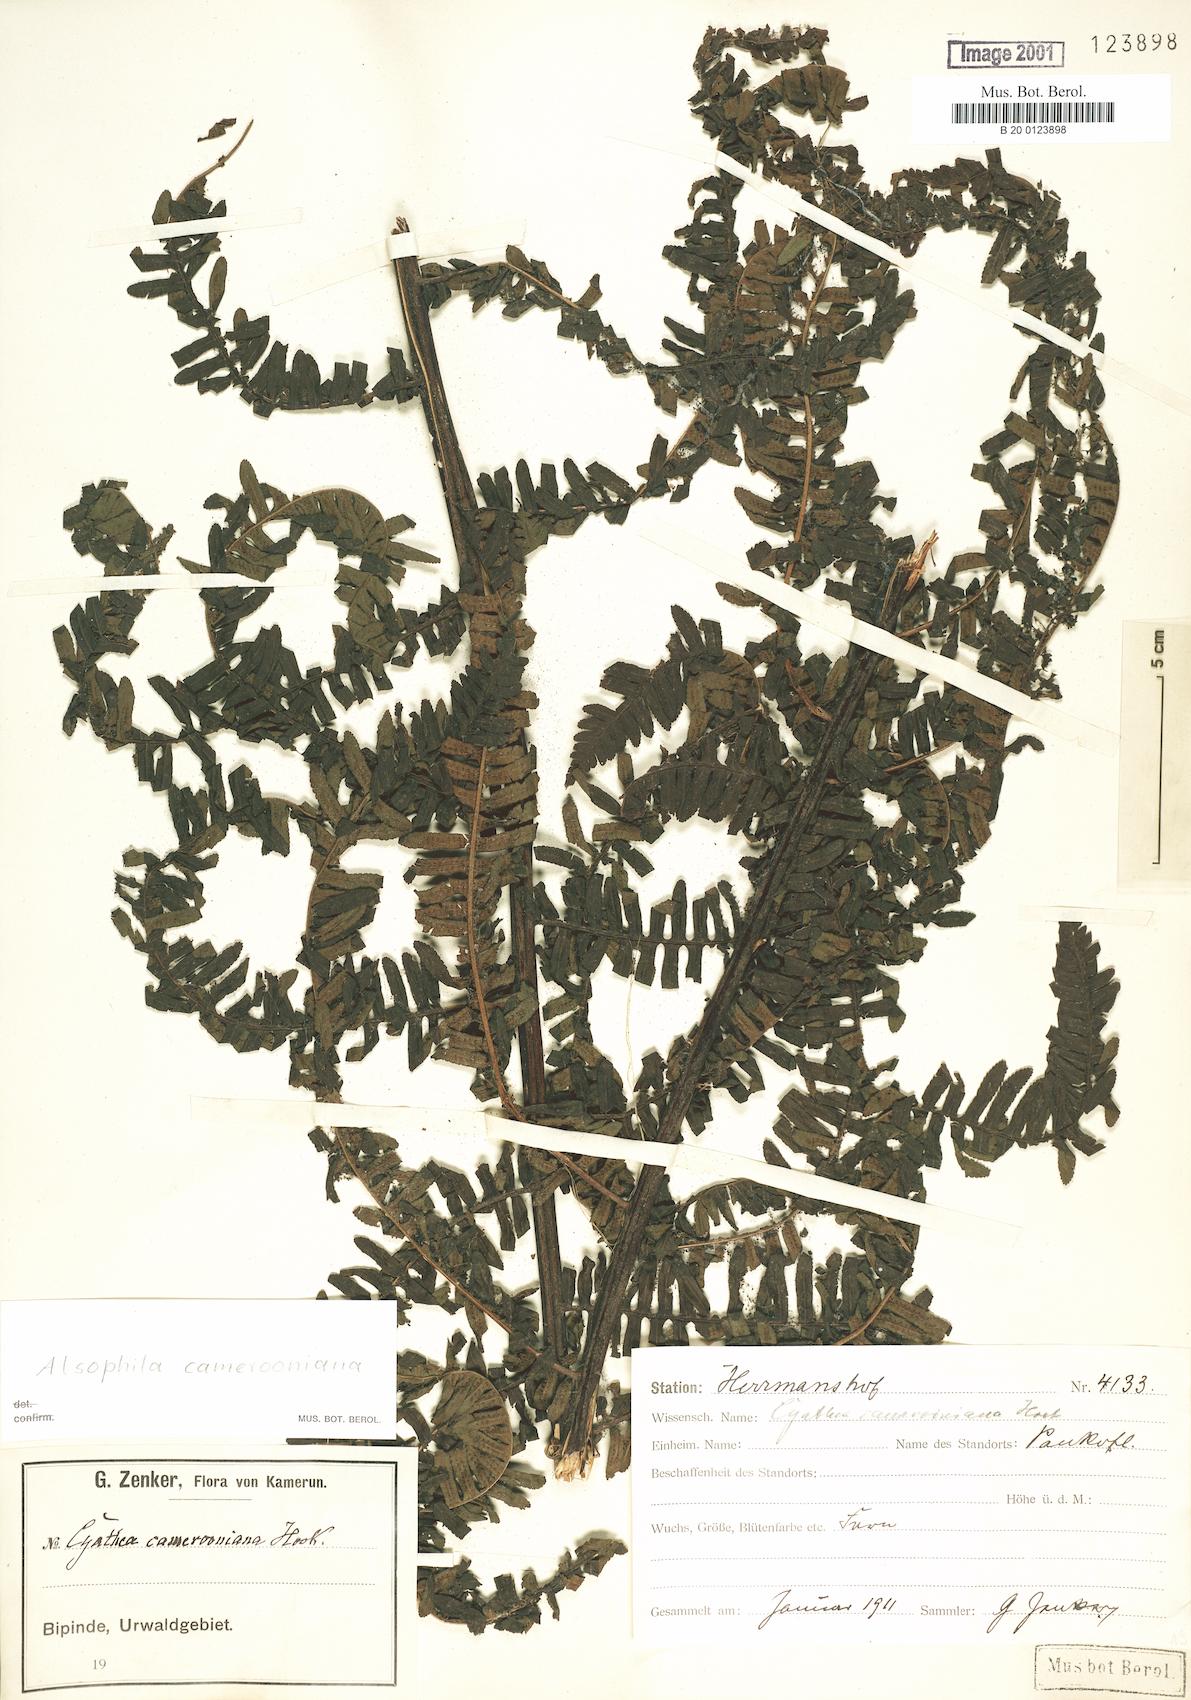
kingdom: Plantae
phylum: Tracheophyta
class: Polypodiopsida
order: Cyatheales
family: Cyatheaceae
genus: Alsophila
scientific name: Alsophila camerooniana
